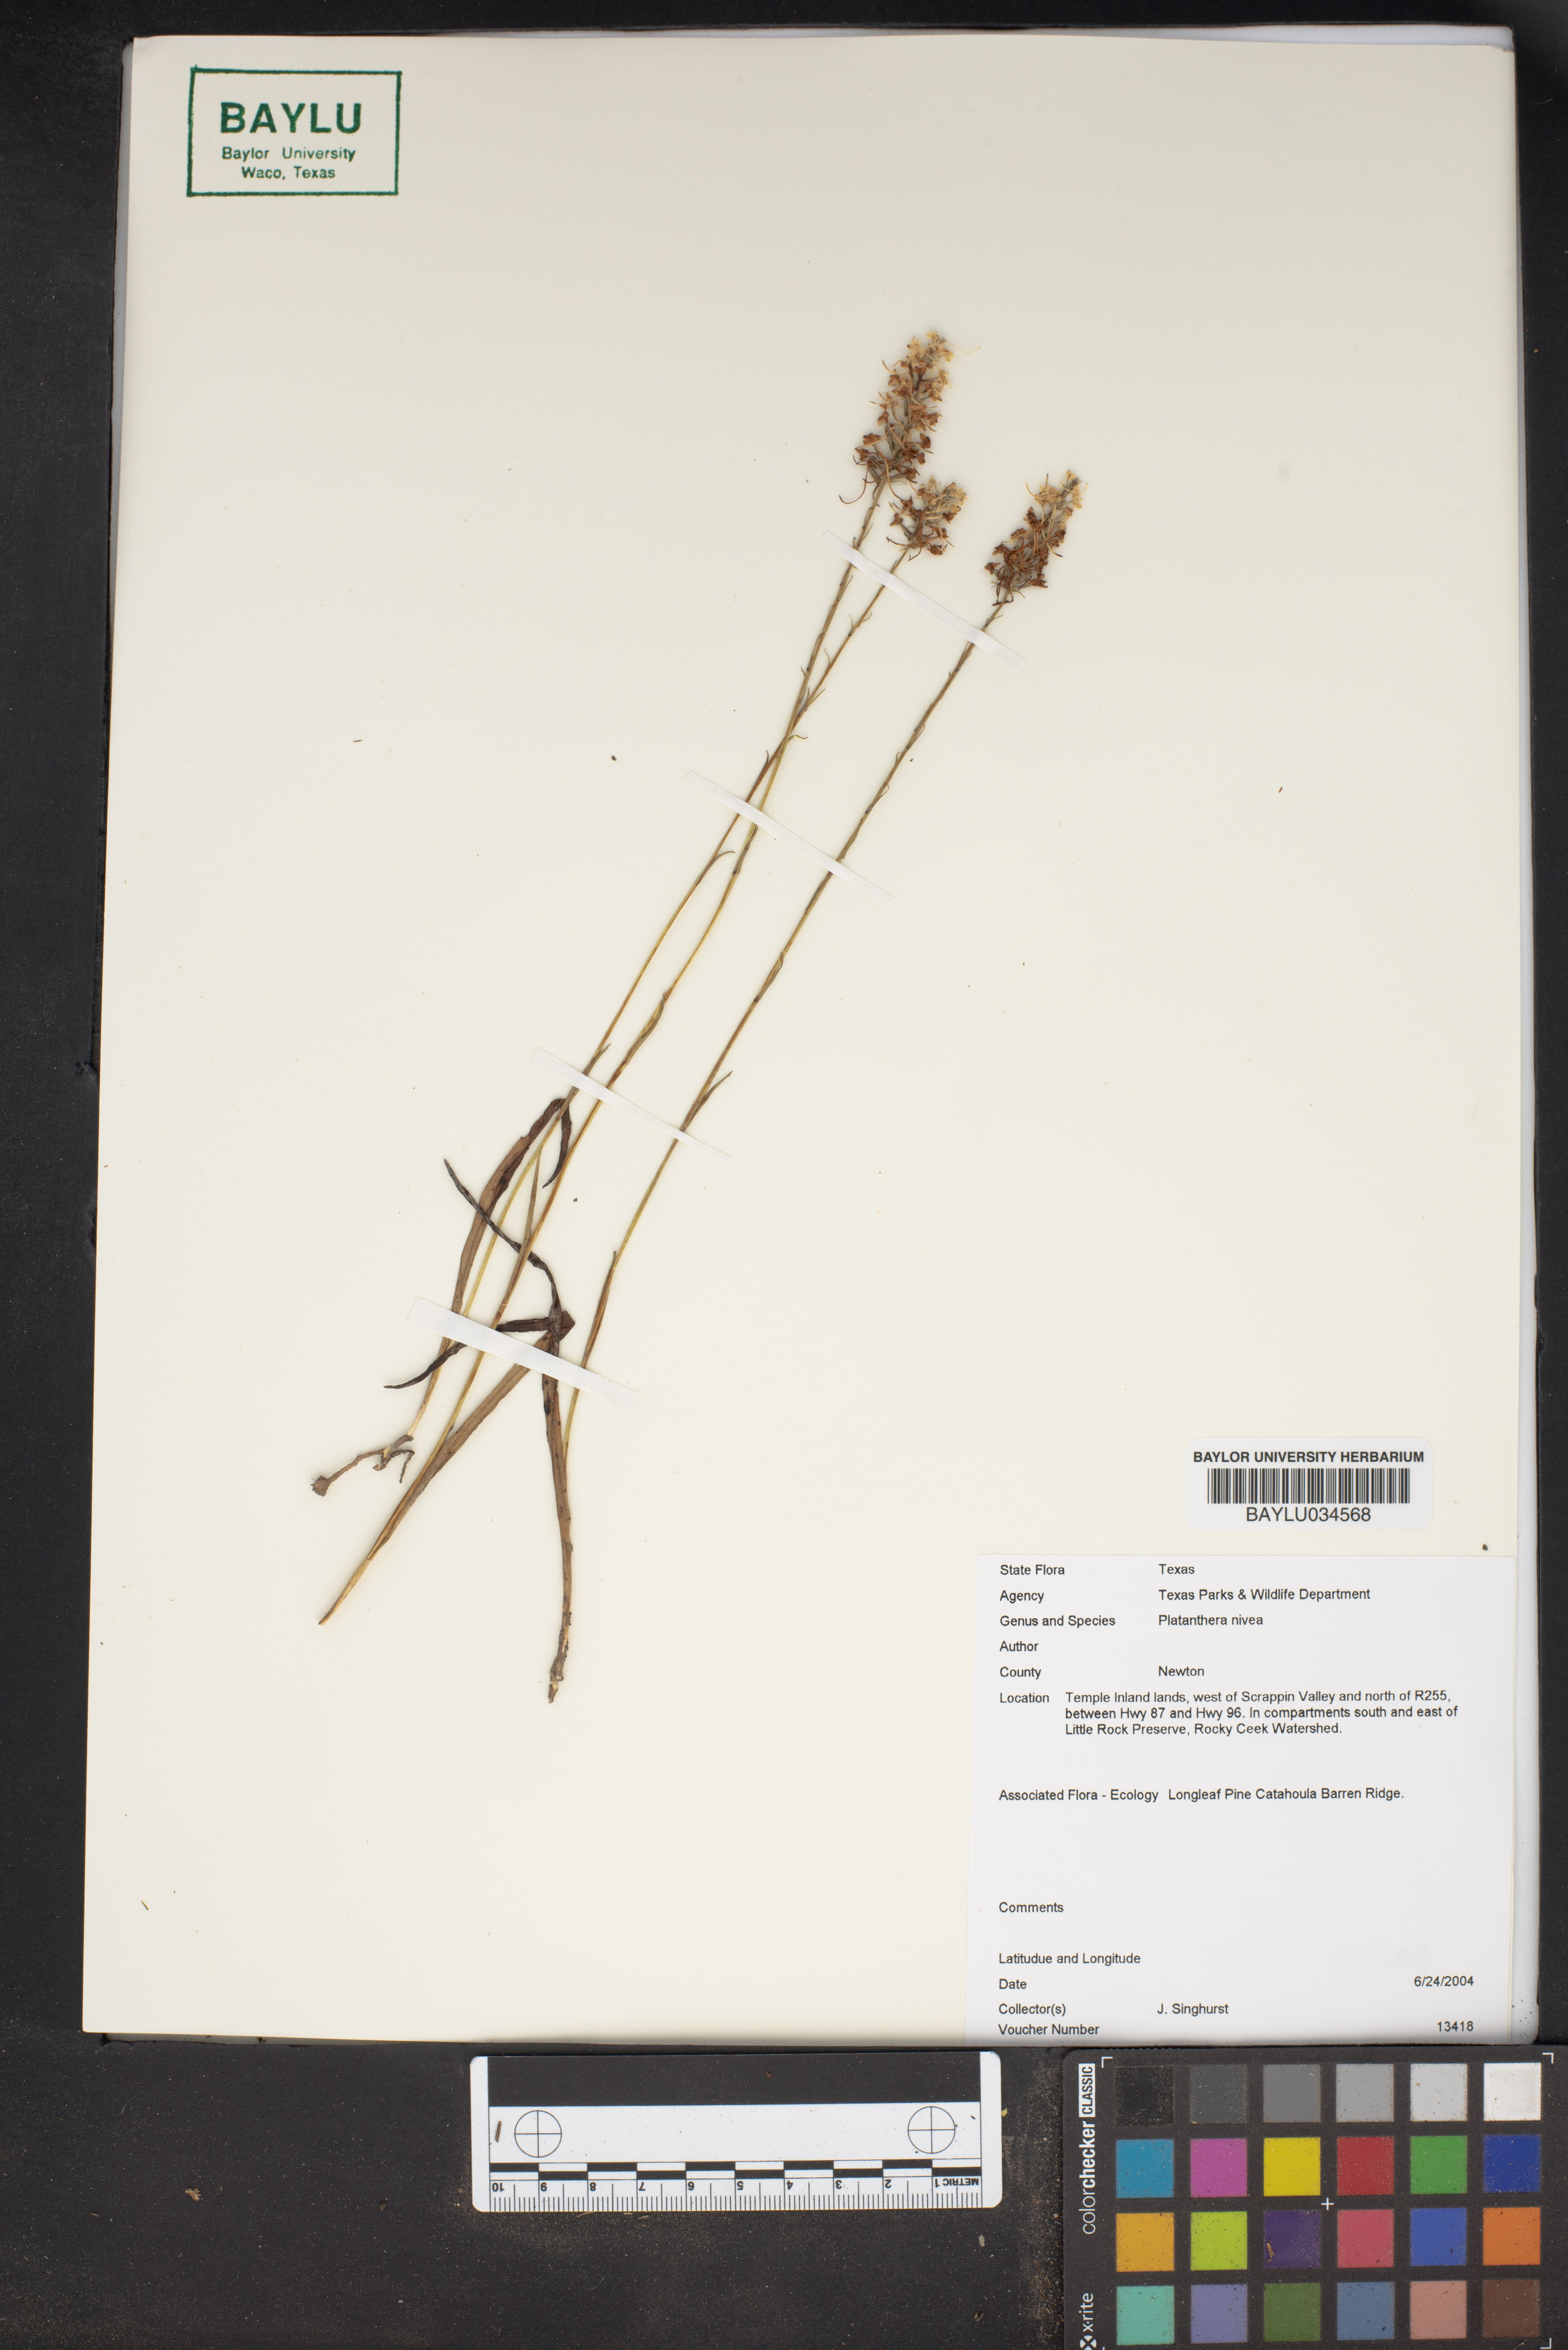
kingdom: Plantae
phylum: Tracheophyta
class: Liliopsida
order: Asparagales
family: Orchidaceae
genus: Platanthera
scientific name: Platanthera nivea
